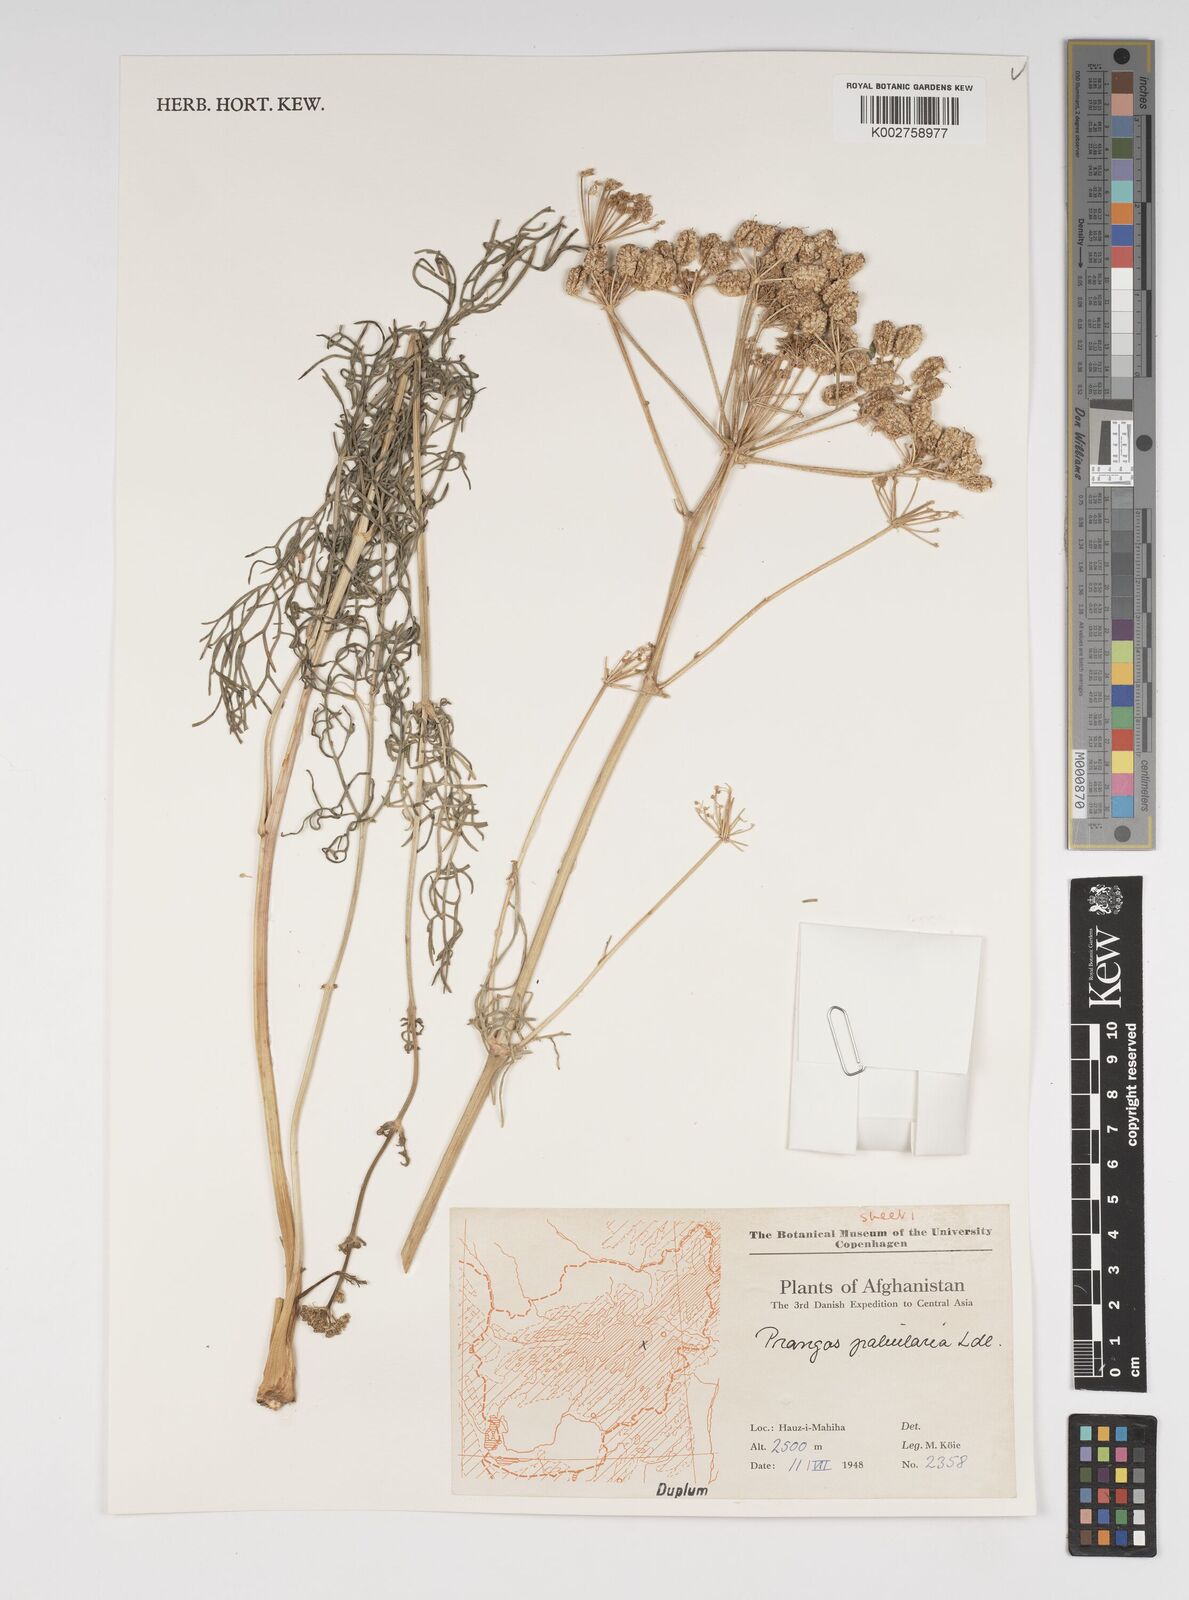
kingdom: Plantae
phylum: Tracheophyta
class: Magnoliopsida
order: Apiales
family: Apiaceae
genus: Prangos
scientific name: Prangos pabularia
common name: Yugan
